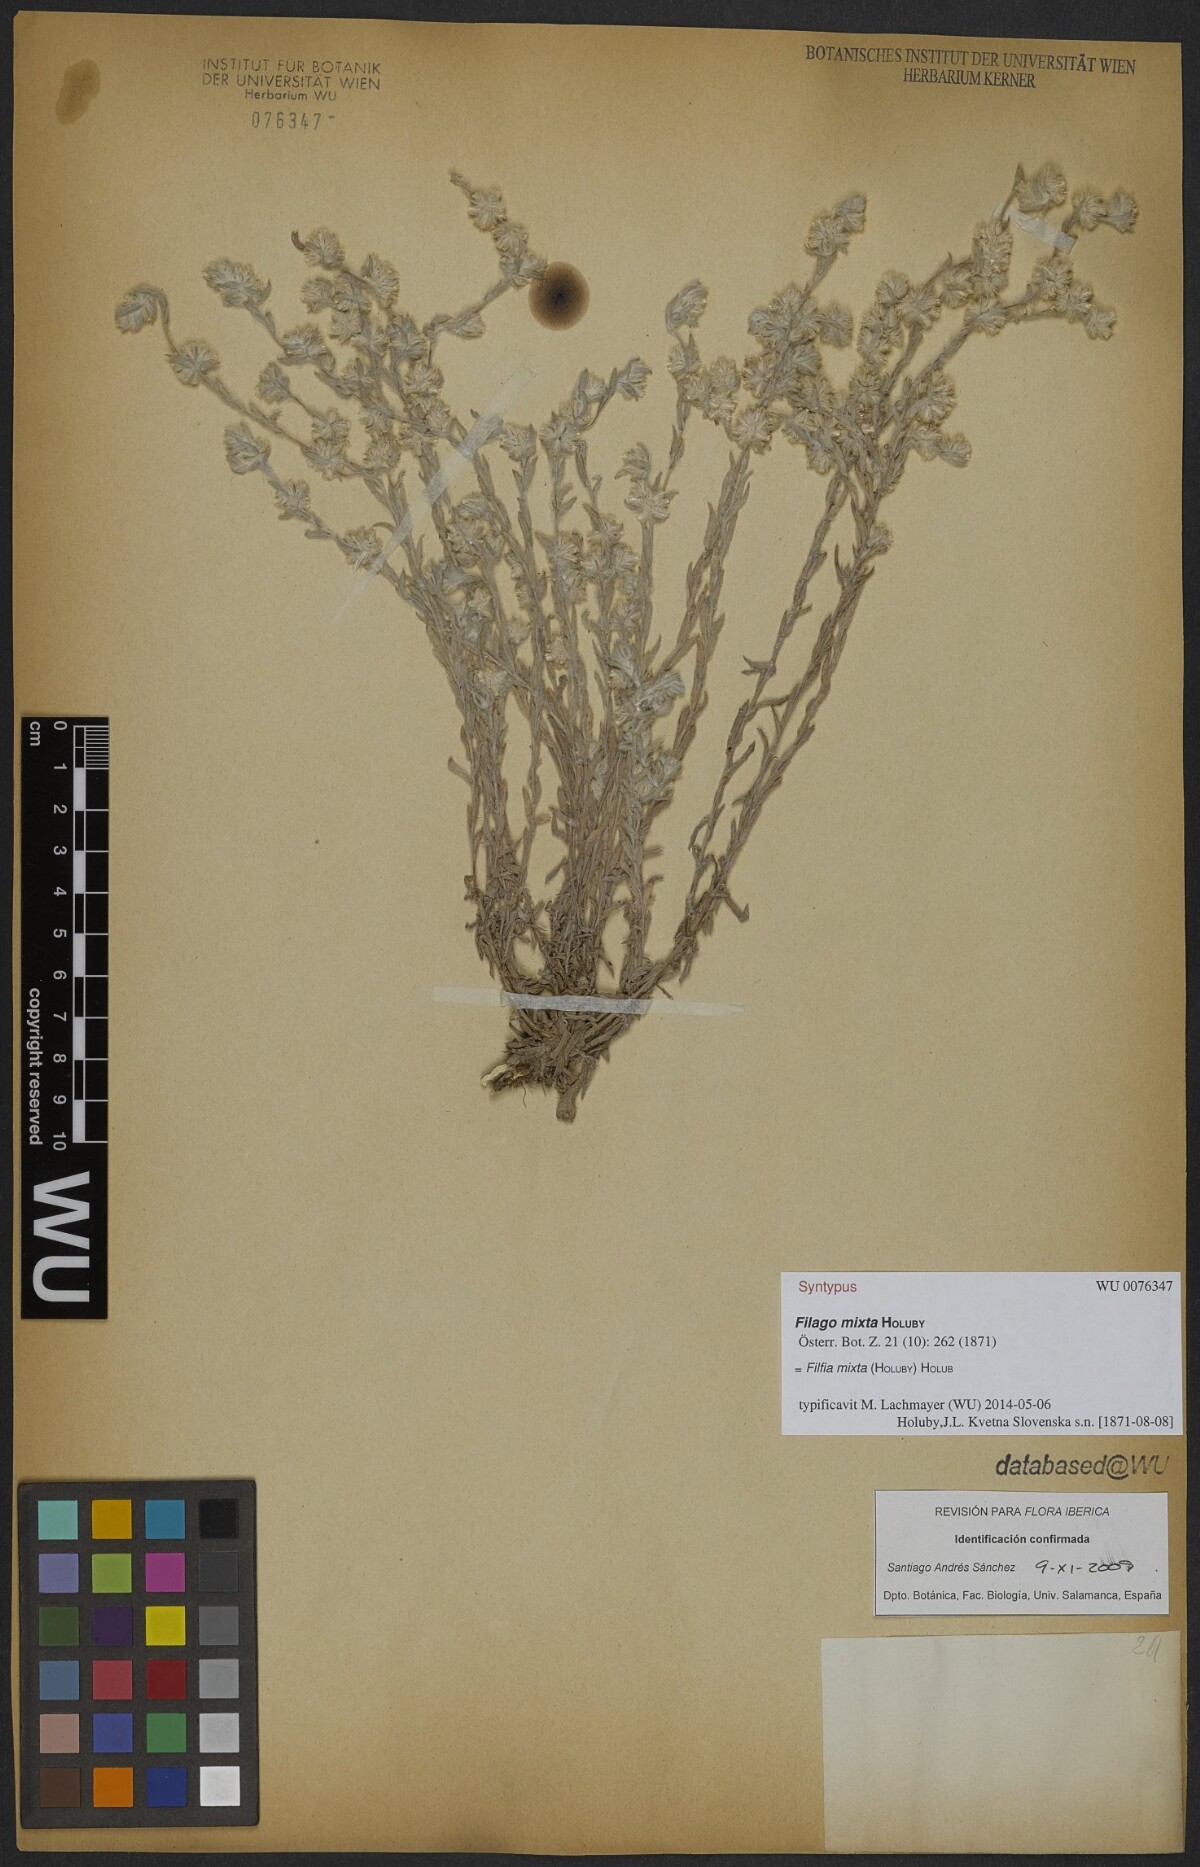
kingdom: Plantae
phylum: Tracheophyta
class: Magnoliopsida
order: Asterales
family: Asteraceae
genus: Filago
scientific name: Filago mixta
